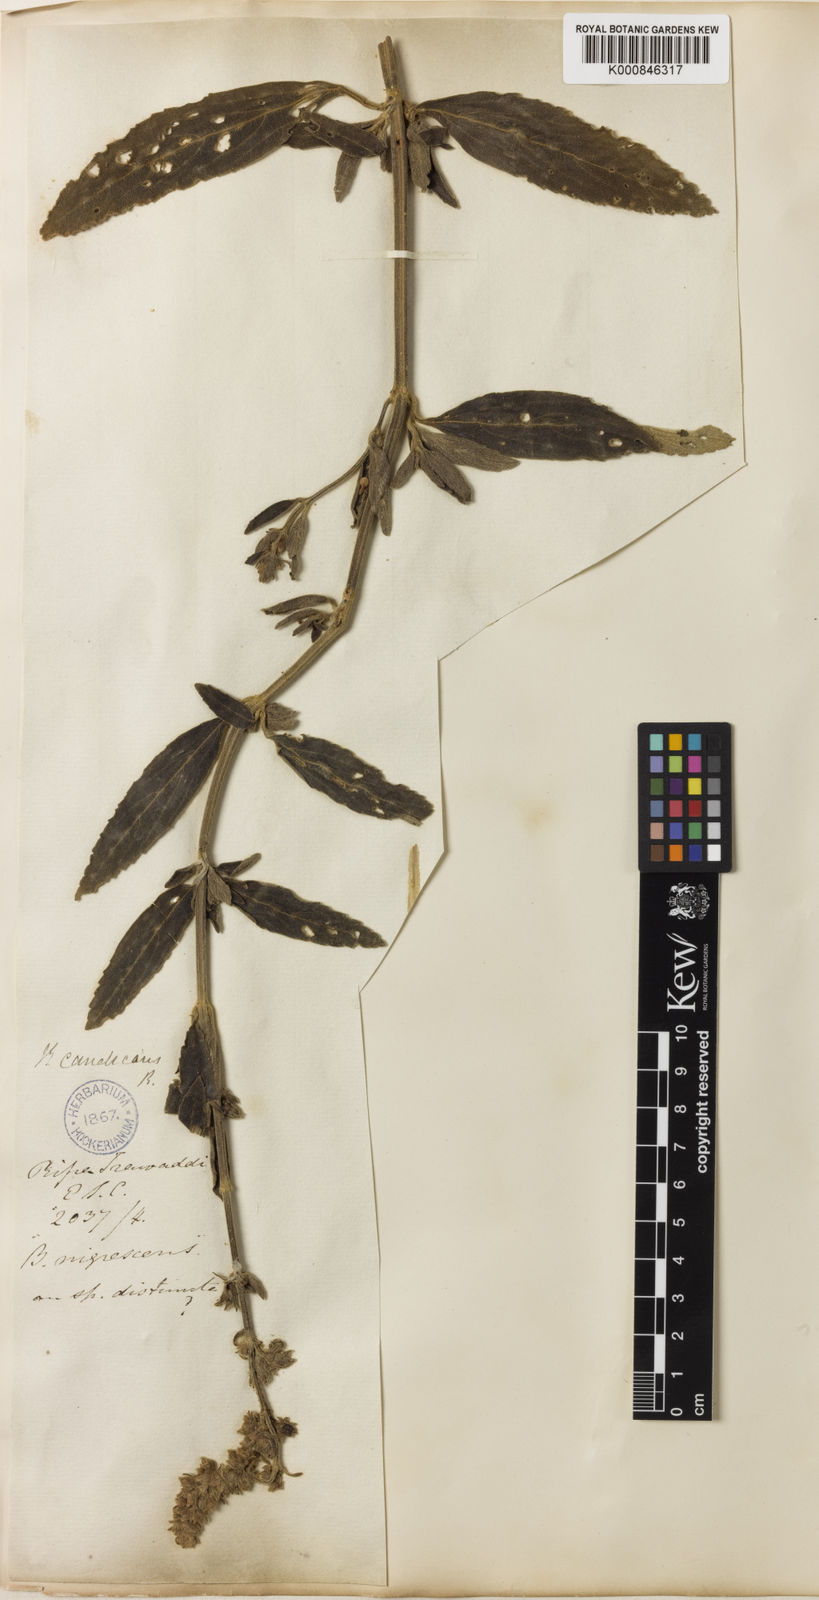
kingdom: Plantae
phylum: Tracheophyta
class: Magnoliopsida
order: Lamiales
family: Lamiaceae
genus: Anisomeles
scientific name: Anisomeles indica
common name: Catmint
